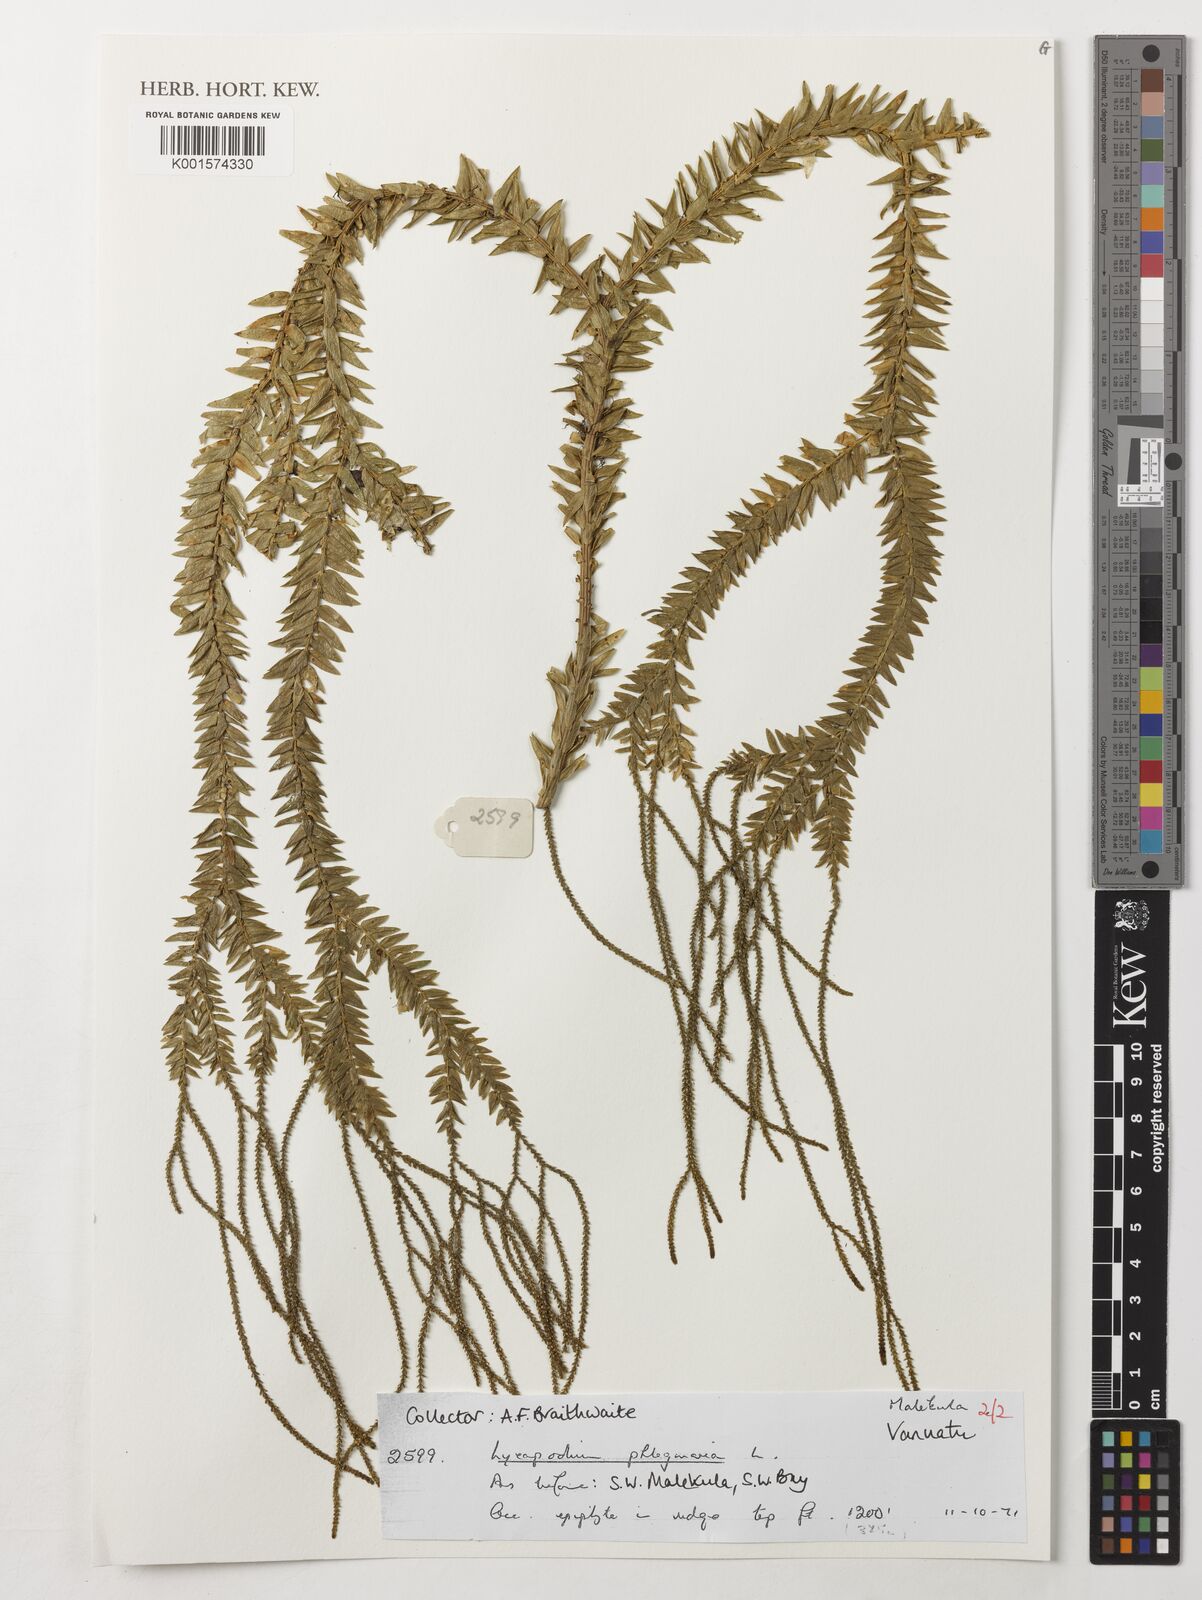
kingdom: Plantae
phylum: Tracheophyta
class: Lycopodiopsida
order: Lycopodiales
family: Lycopodiaceae
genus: Phlegmariurus
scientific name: Phlegmariurus phlegmaria
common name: Coarse tassel-fern
